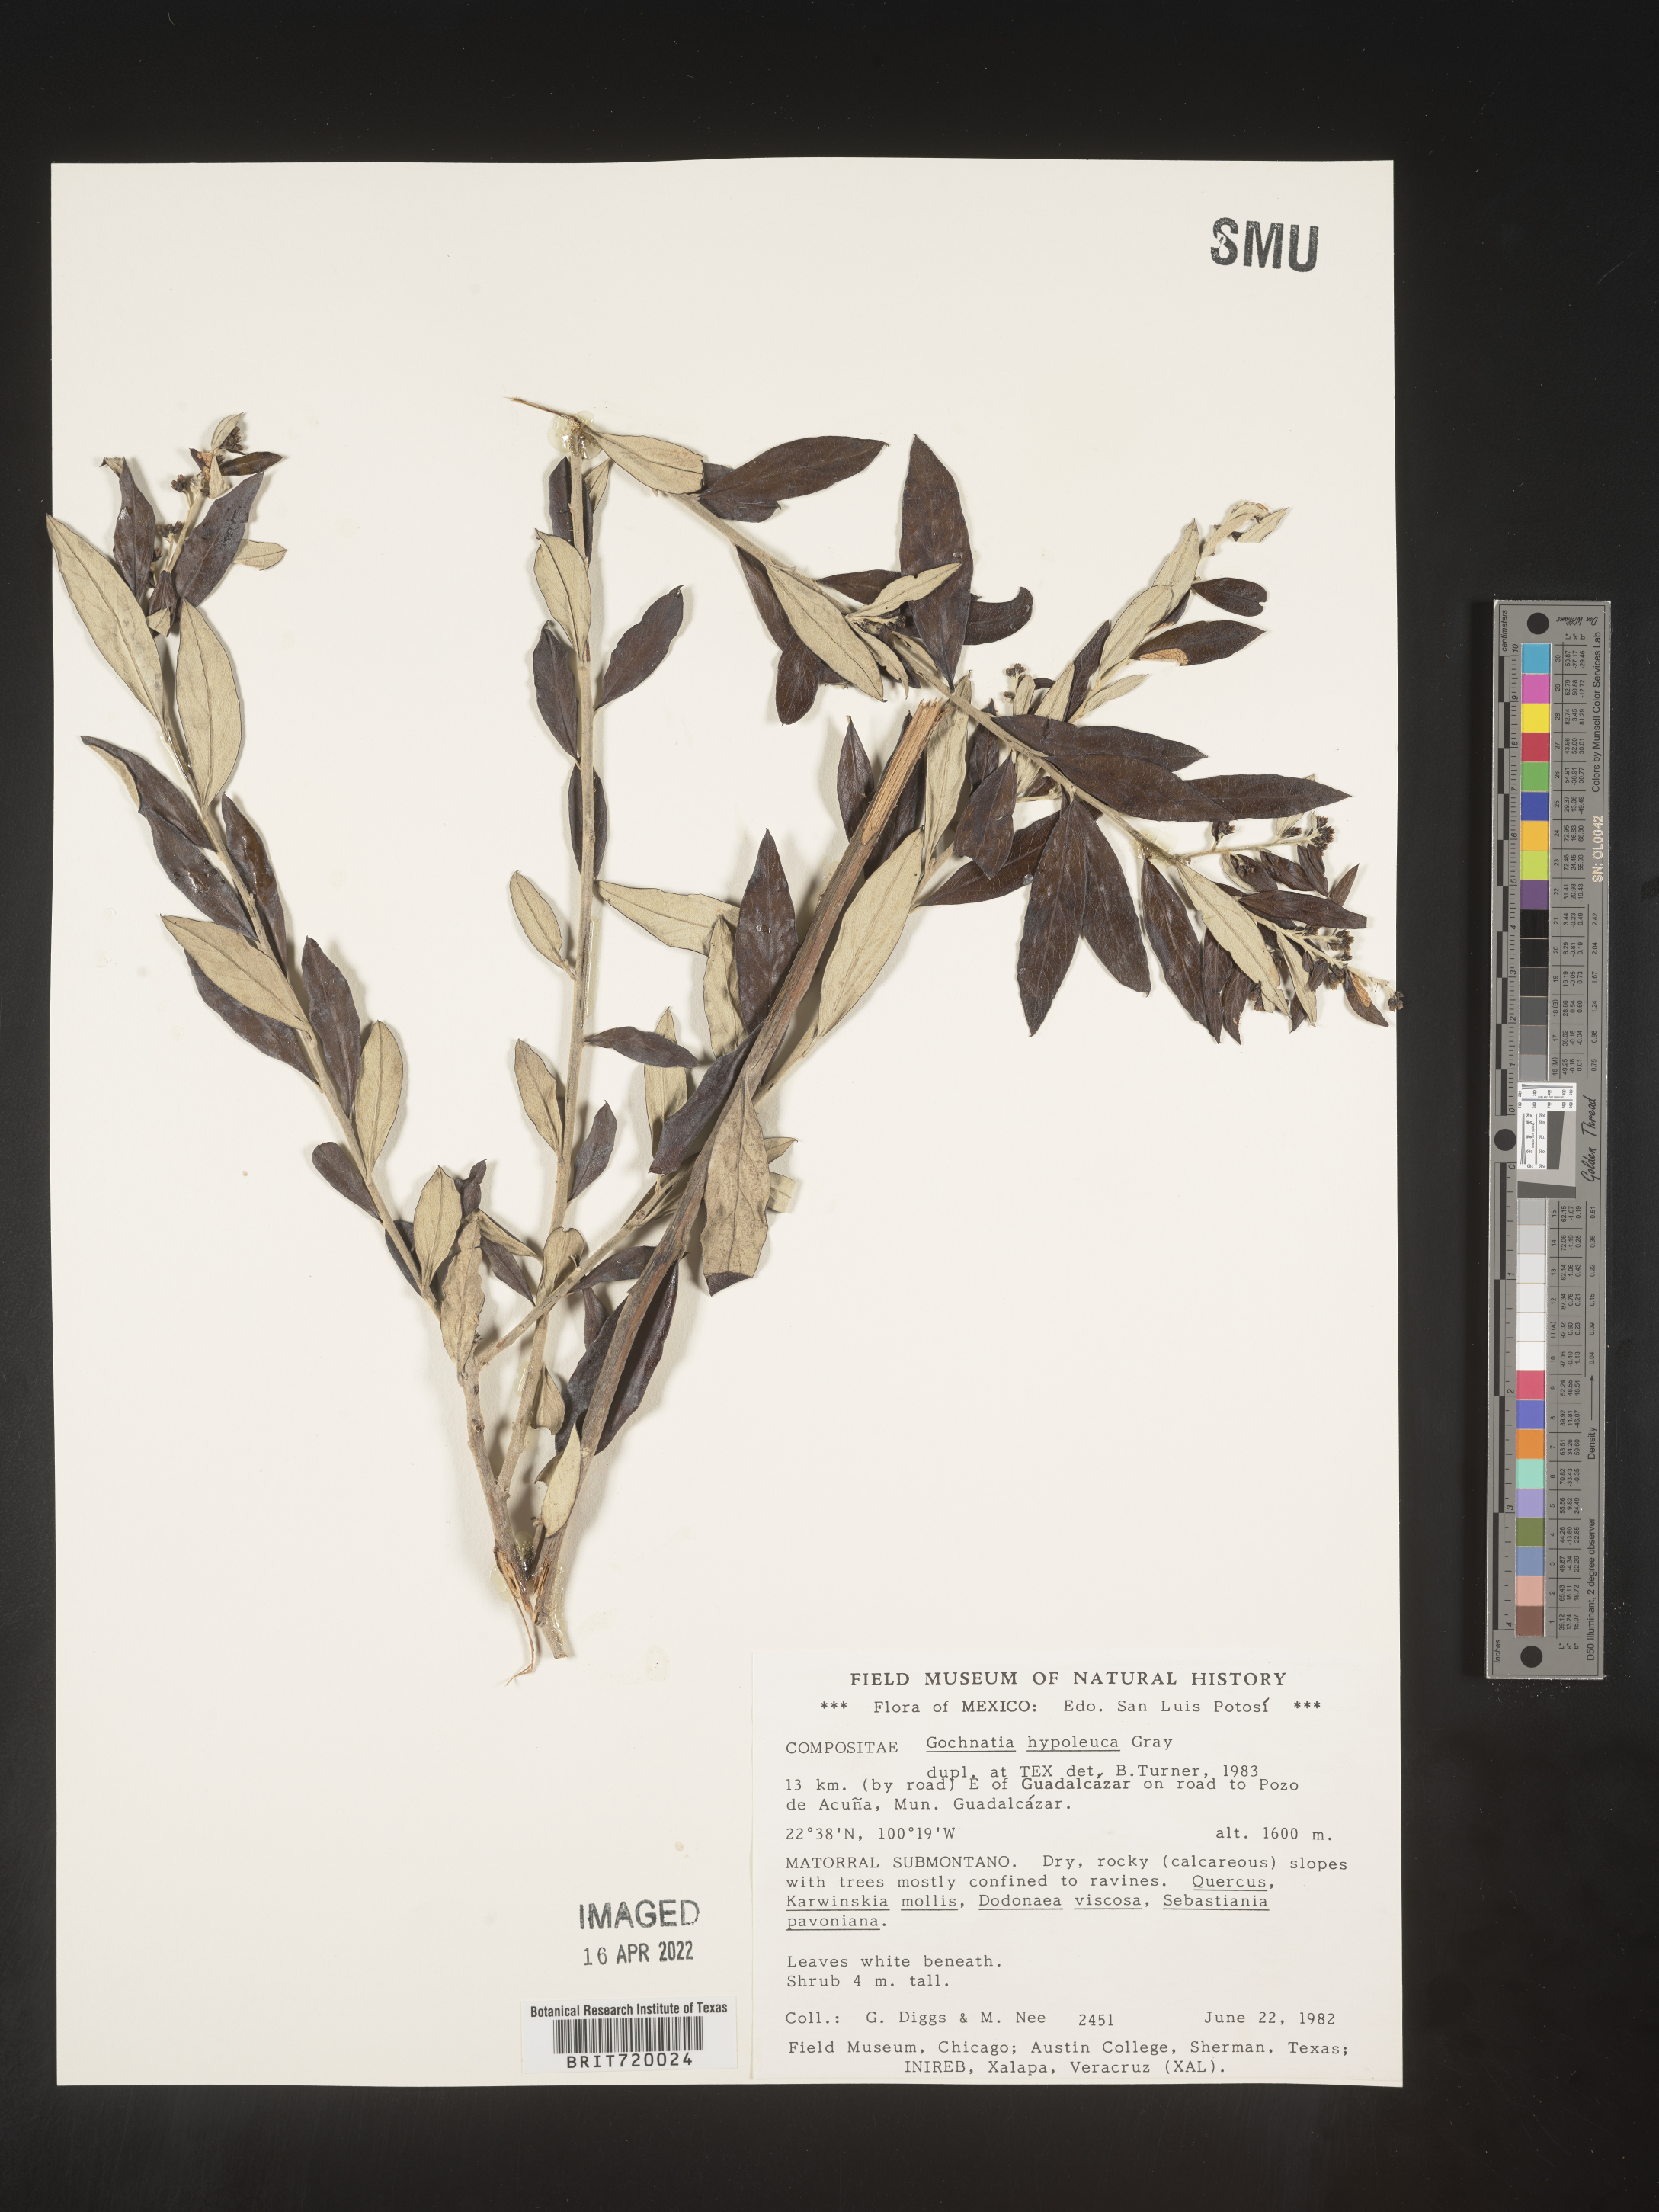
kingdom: Plantae
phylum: Tracheophyta
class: Magnoliopsida
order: Asterales
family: Asteraceae
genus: Gochnatia
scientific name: Gochnatia
